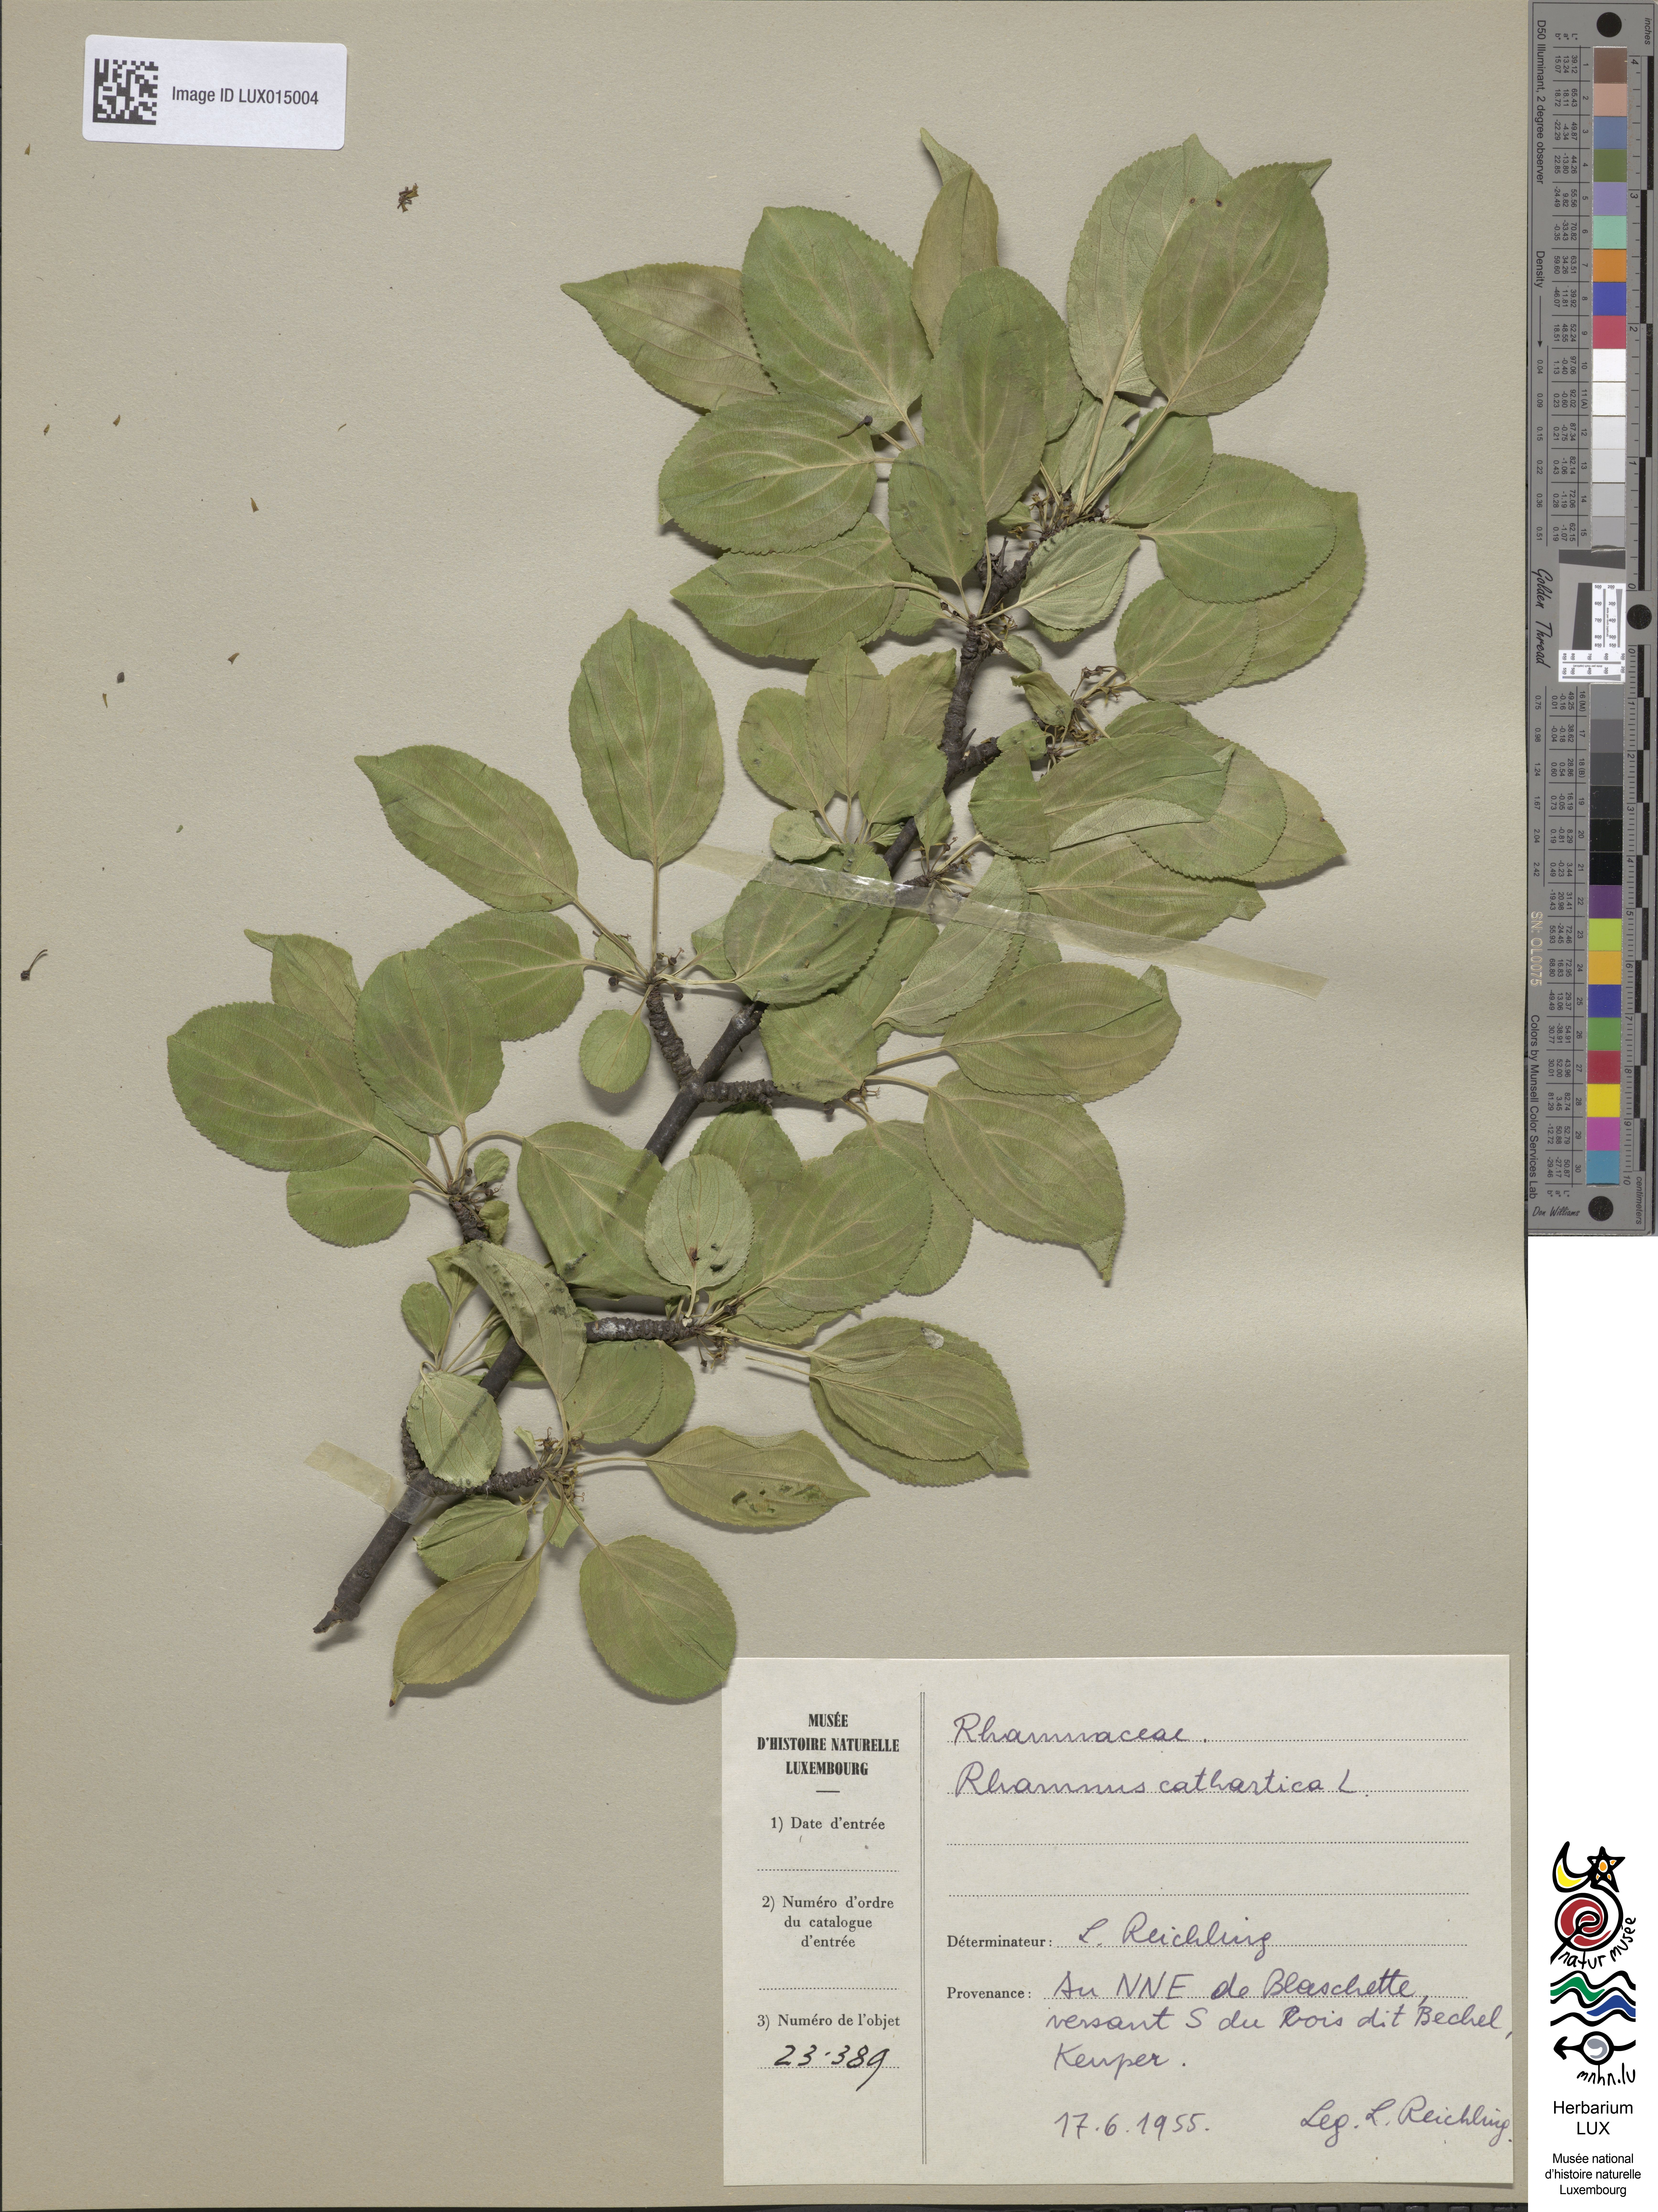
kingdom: Plantae
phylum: Tracheophyta
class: Magnoliopsida
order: Rosales
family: Rhamnaceae
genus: Rhamnus
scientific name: Rhamnus cathartica
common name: Common buckthorn
